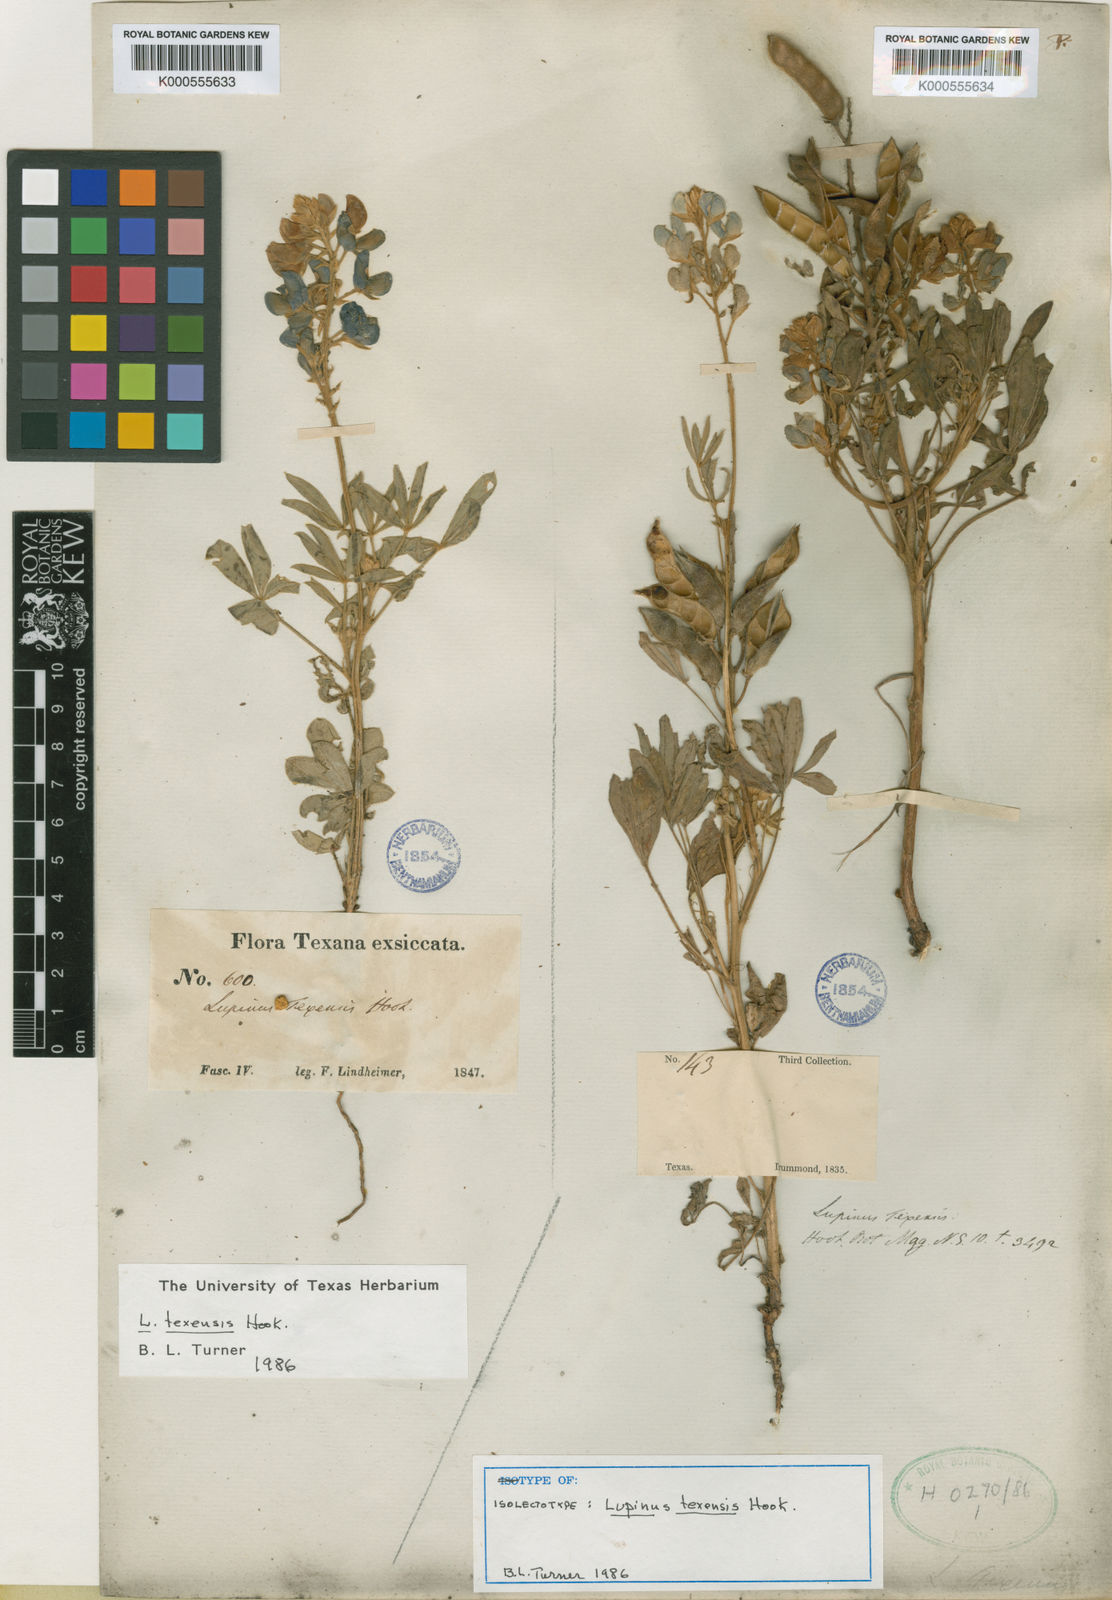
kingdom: Plantae
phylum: Tracheophyta
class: Magnoliopsida
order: Fabales
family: Fabaceae
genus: Lupinus
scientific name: Lupinus texensis
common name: Texas bluebonnet
